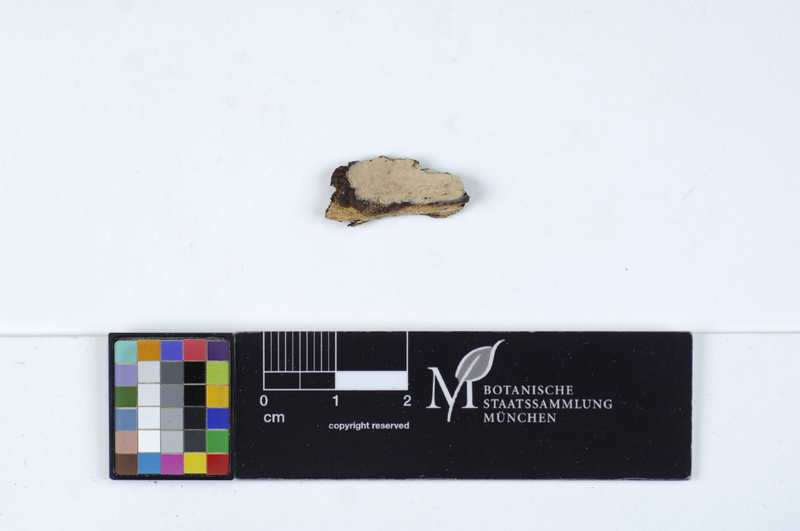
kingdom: Plantae
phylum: Tracheophyta
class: Magnoliopsida
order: Fagales
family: Fagaceae
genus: Quercus
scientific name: Quercus
